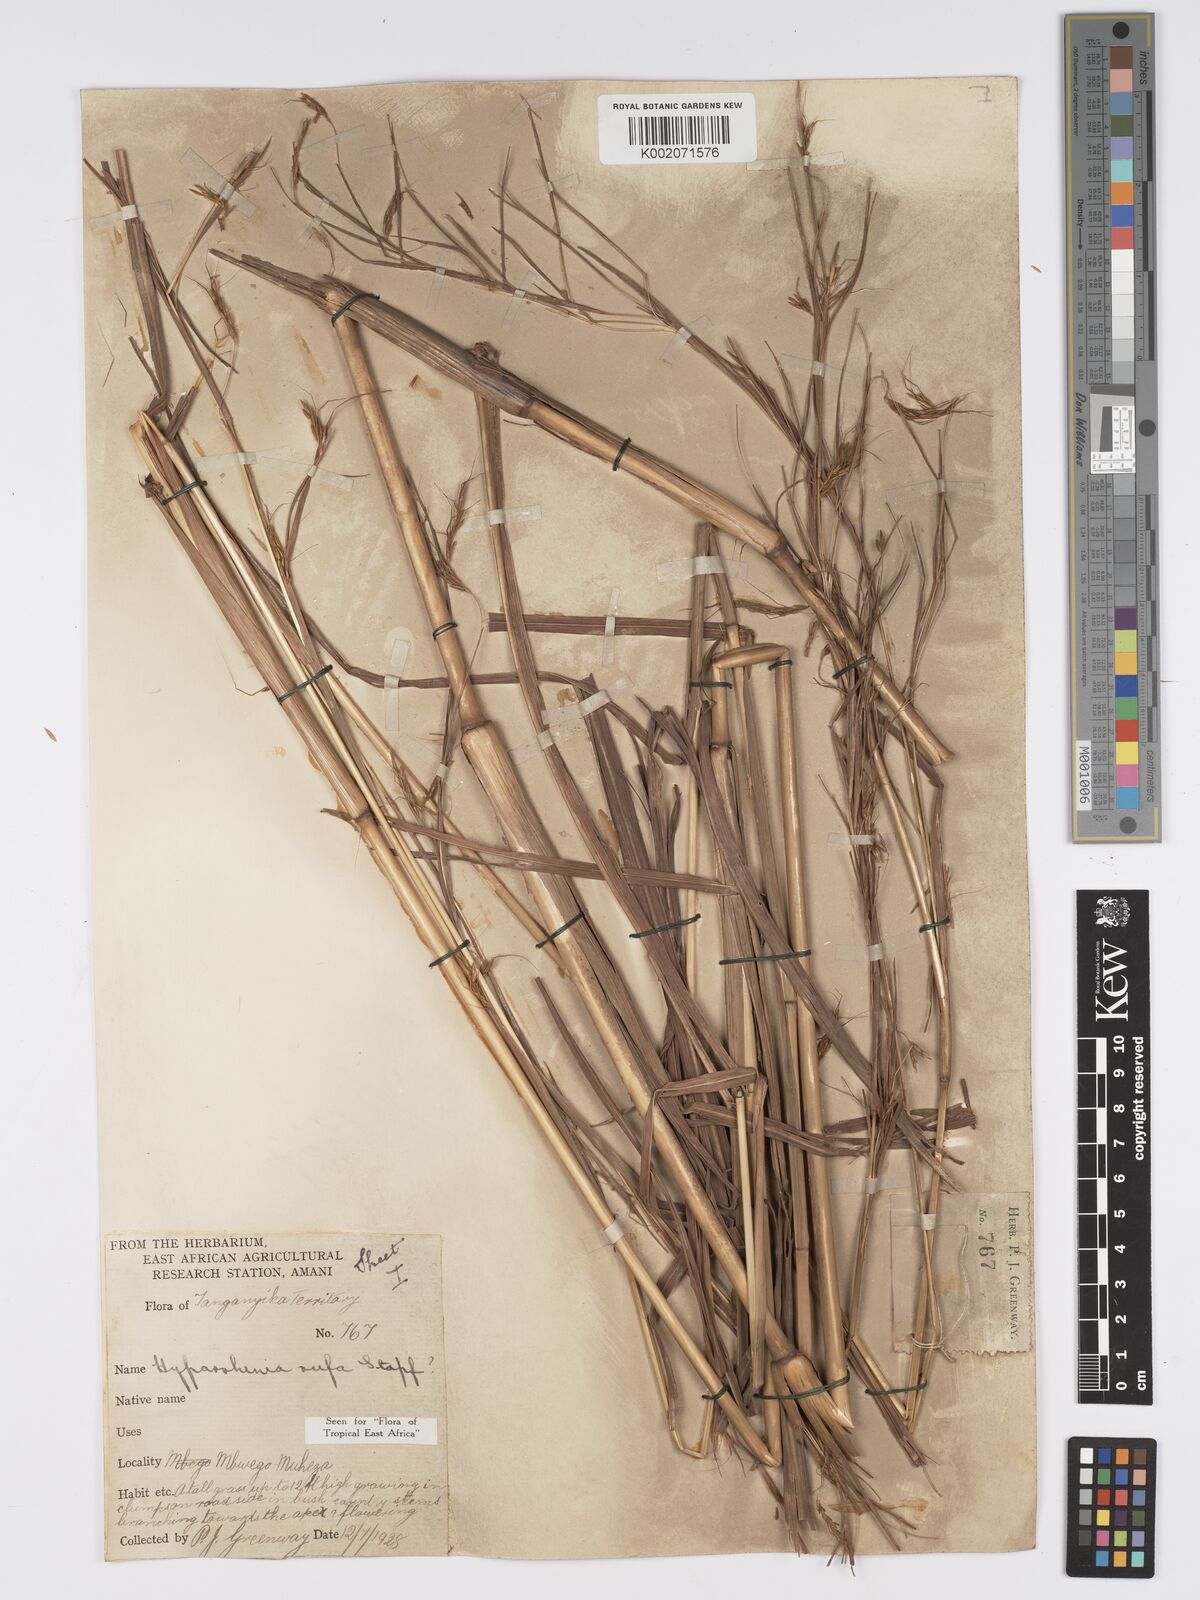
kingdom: Plantae
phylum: Tracheophyta
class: Liliopsida
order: Poales
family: Poaceae
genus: Hyparrhenia
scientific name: Hyparrhenia rufa
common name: Jaraguagrass
